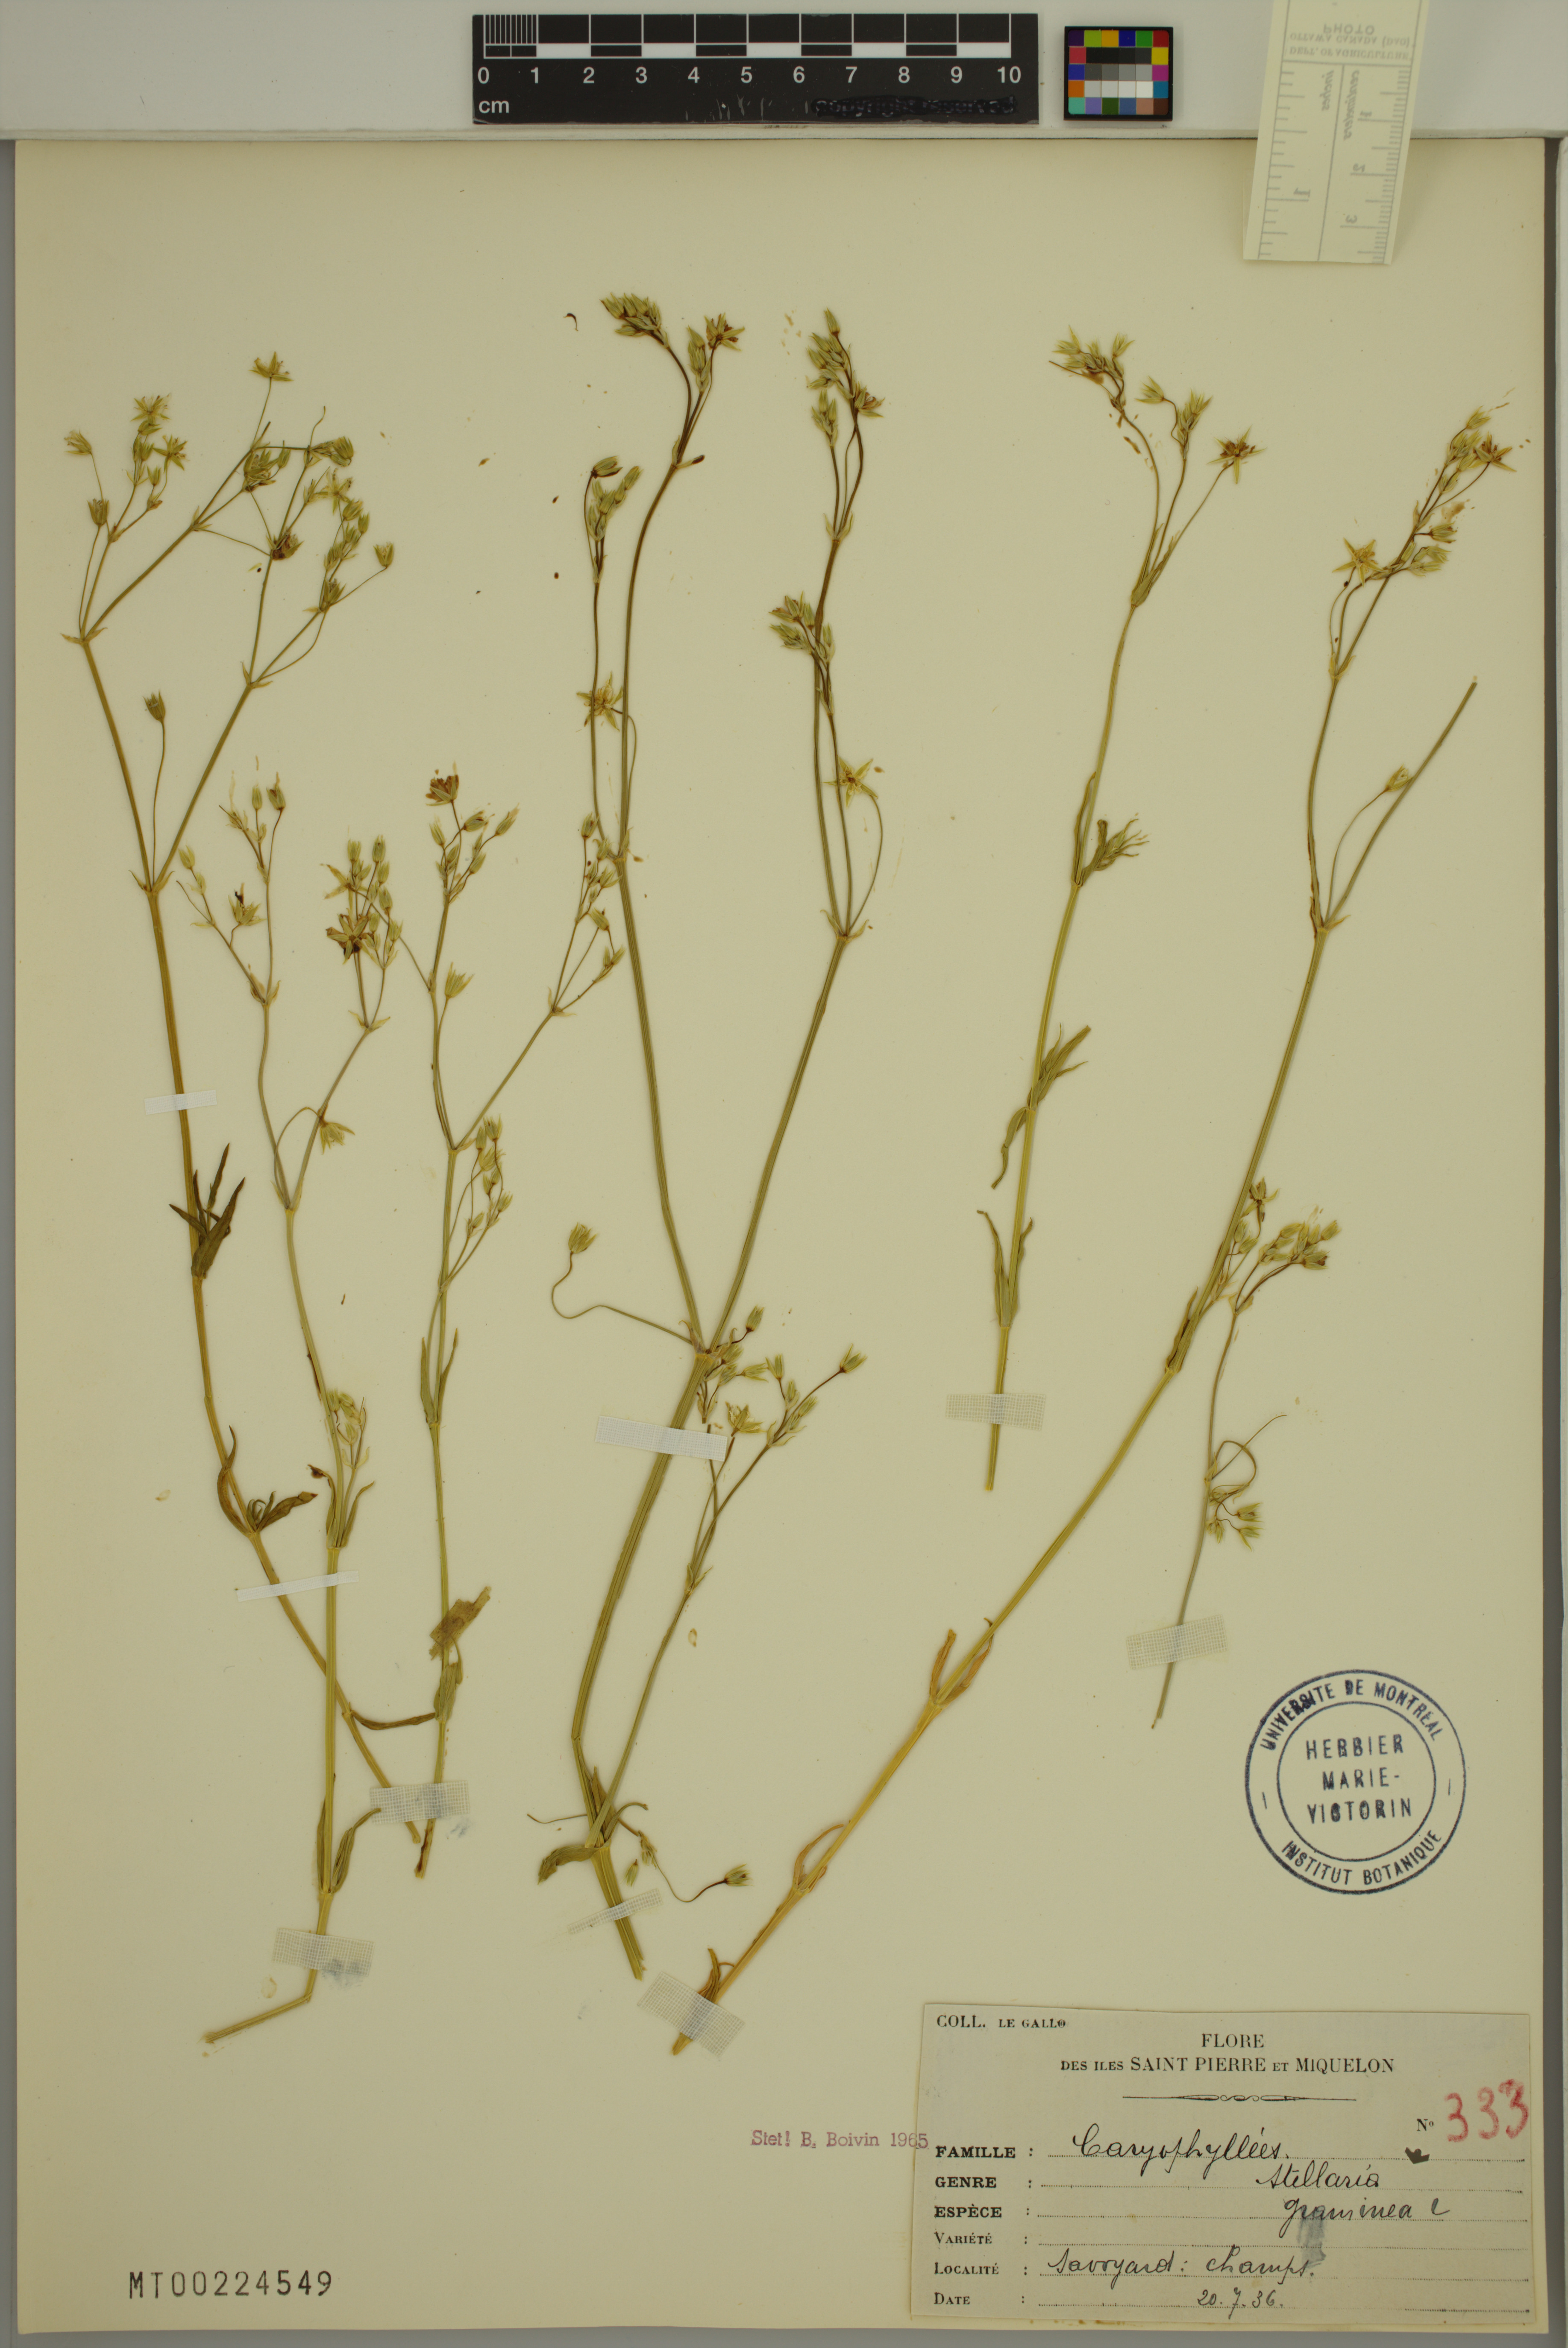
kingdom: Plantae
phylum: Tracheophyta
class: Magnoliopsida
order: Caryophyllales
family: Caryophyllaceae
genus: Stellaria
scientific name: Stellaria graminea
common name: Grass-like starwort
